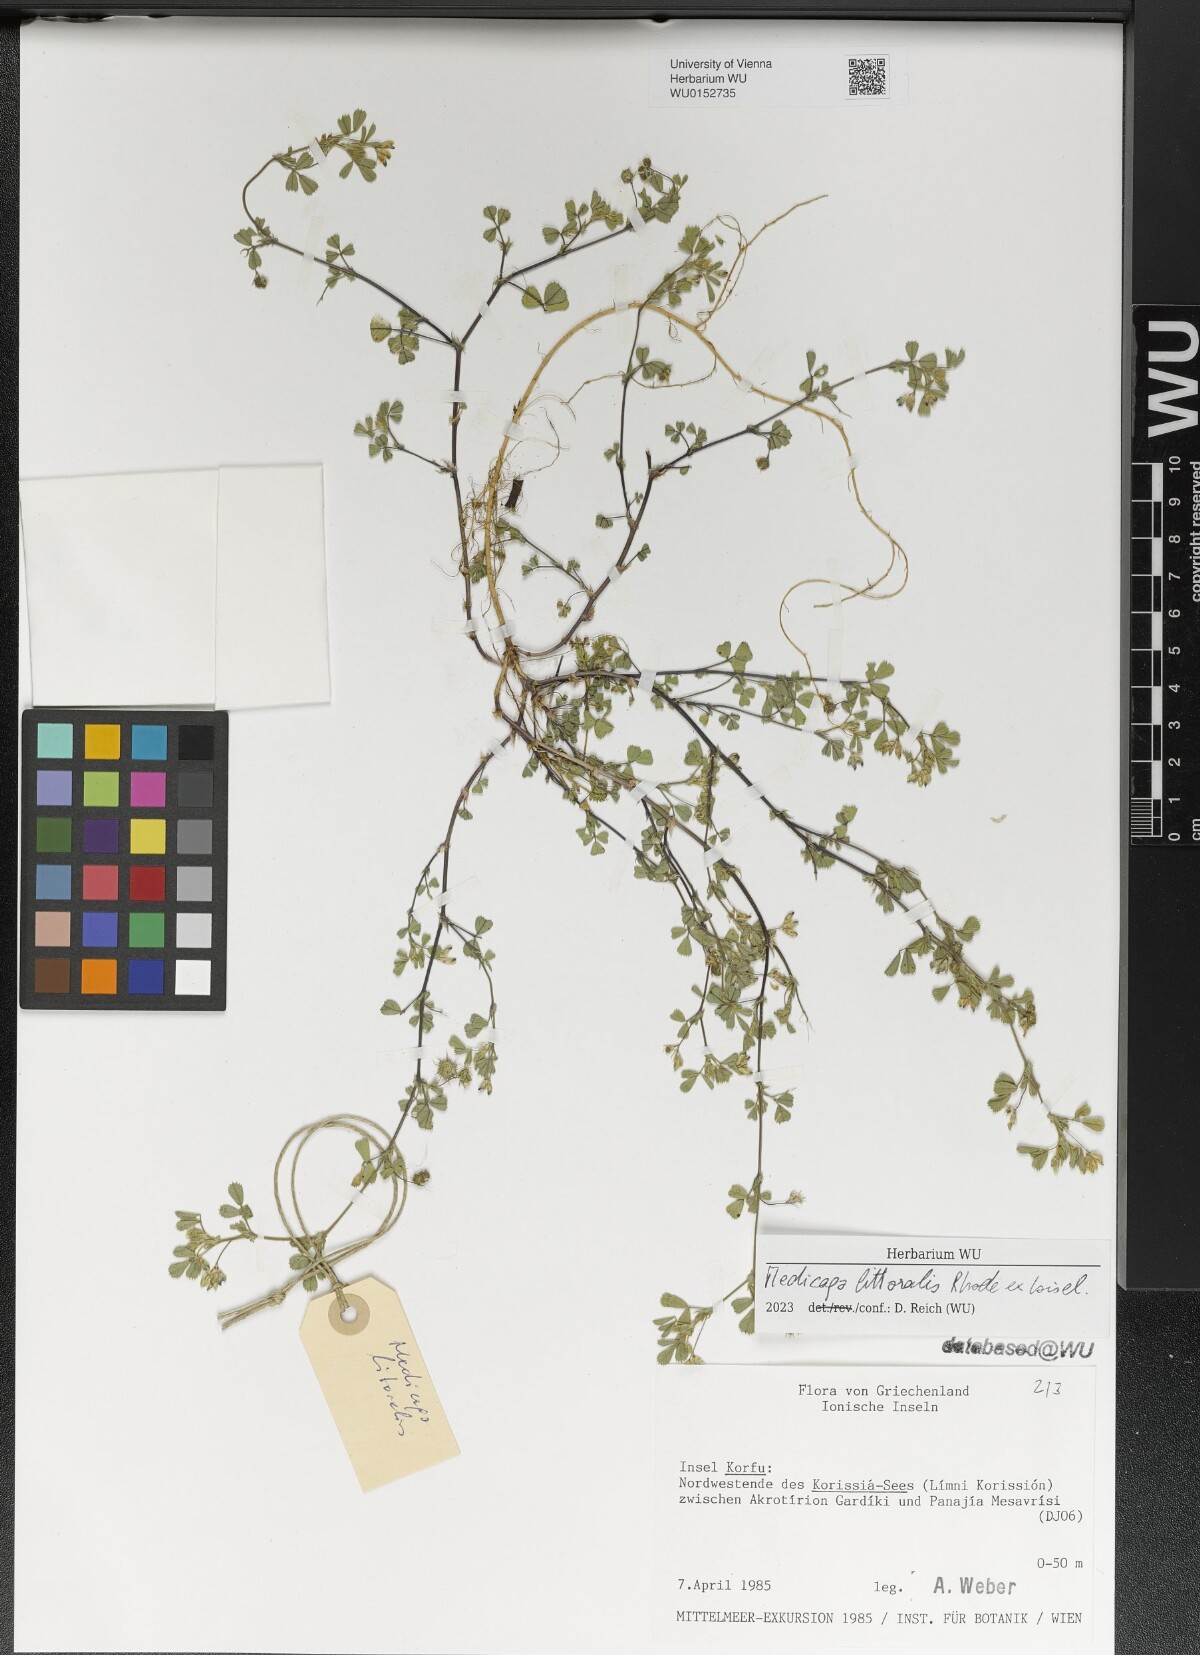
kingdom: Plantae
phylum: Tracheophyta
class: Magnoliopsida
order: Fabales
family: Fabaceae
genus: Medicago
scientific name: Medicago littoralis
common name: Shore medick
